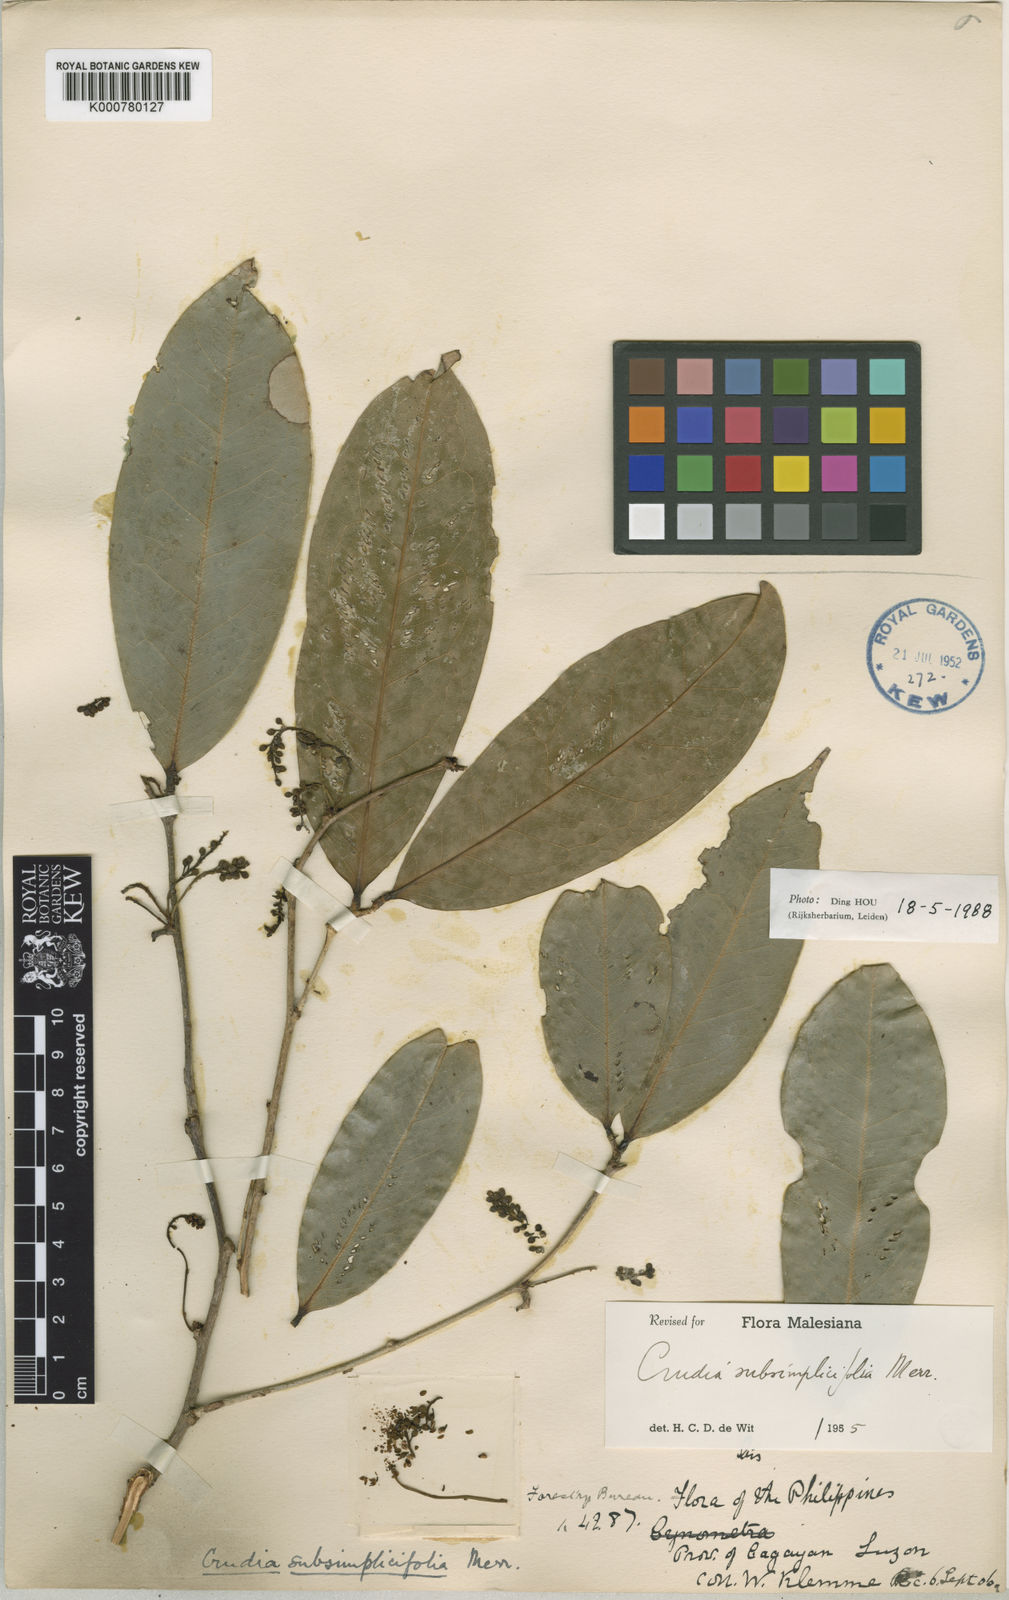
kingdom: Plantae
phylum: Tracheophyta
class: Magnoliopsida
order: Fabales
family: Fabaceae
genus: Crudia
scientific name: Crudia gracilis
